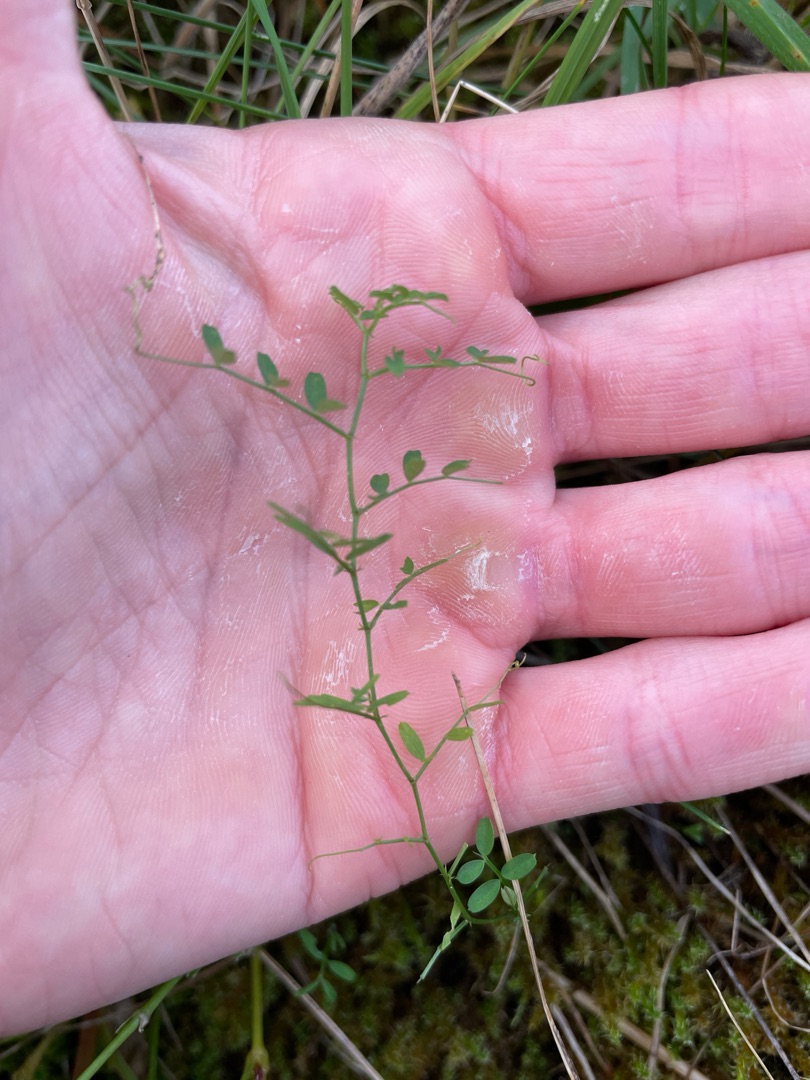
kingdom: Plantae
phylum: Tracheophyta
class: Magnoliopsida
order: Fabales
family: Fabaceae
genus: Vicia
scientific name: Vicia
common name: Vikkeslægten
